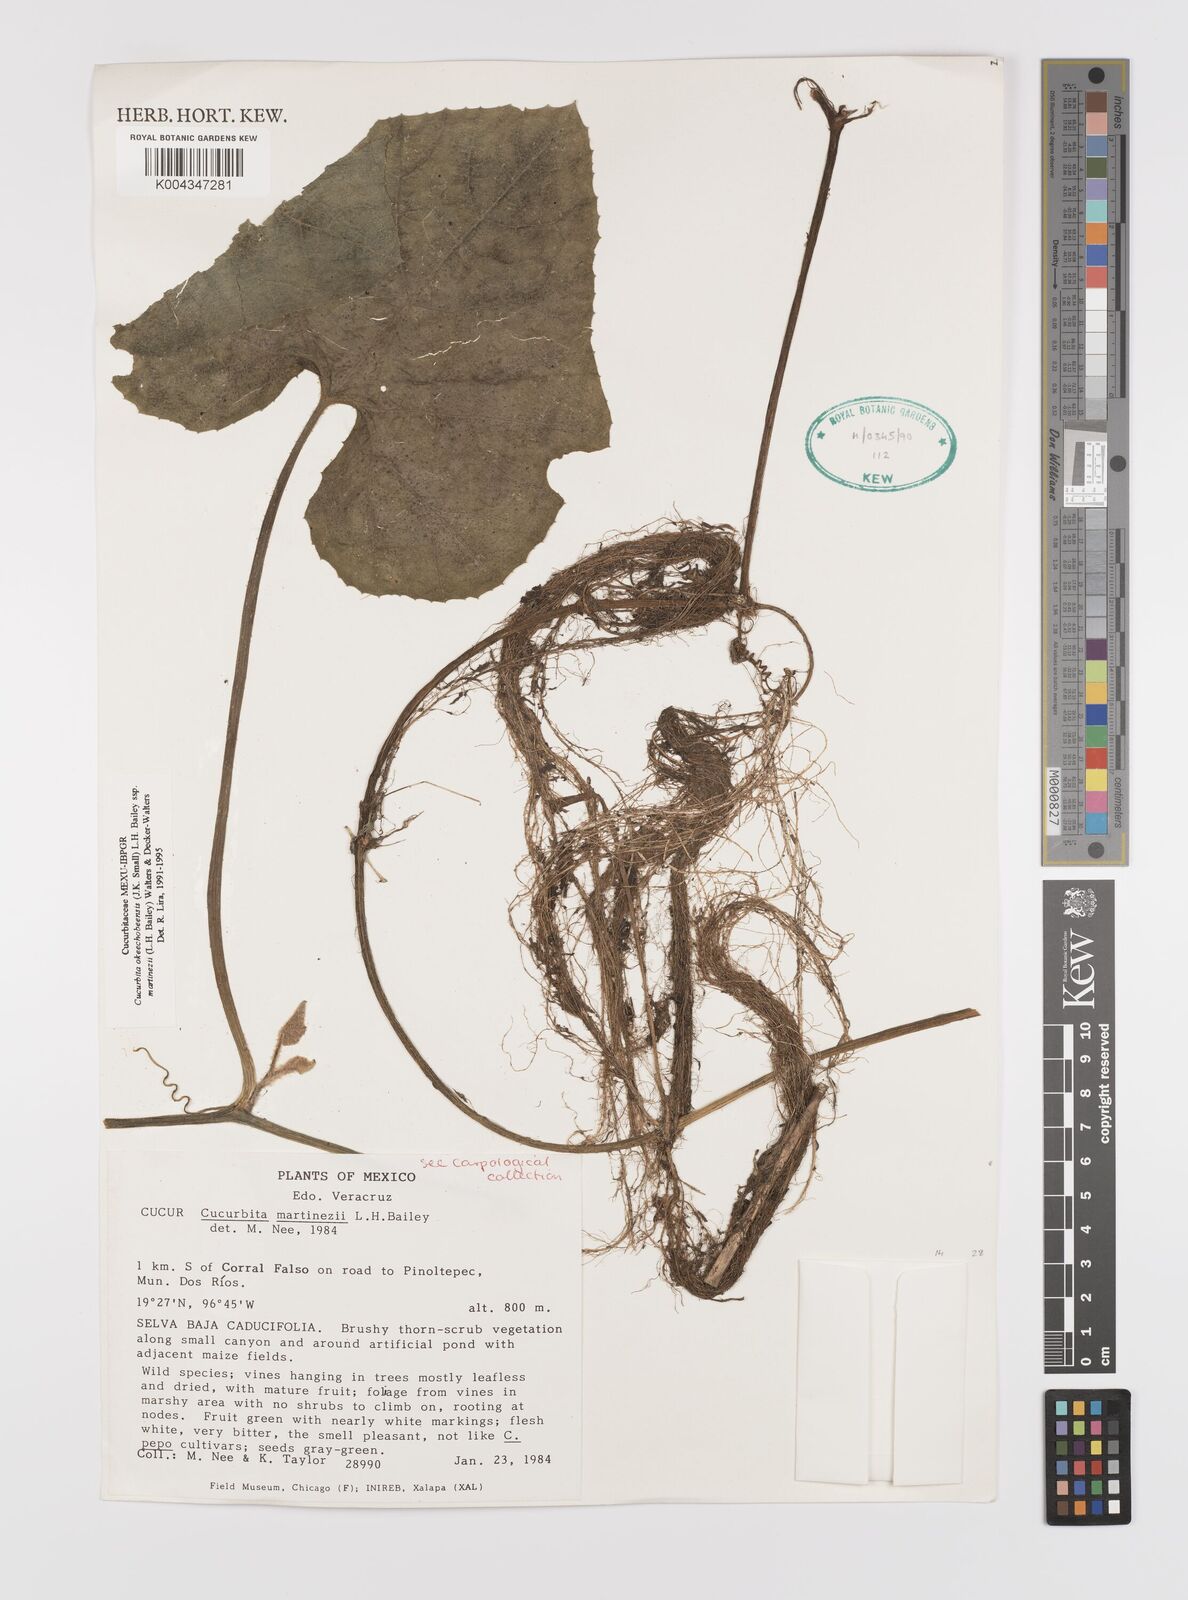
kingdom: Plantae
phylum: Tracheophyta
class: Magnoliopsida
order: Cucurbitales
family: Cucurbitaceae
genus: Cucurbita
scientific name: Cucurbita okeechobeensis
